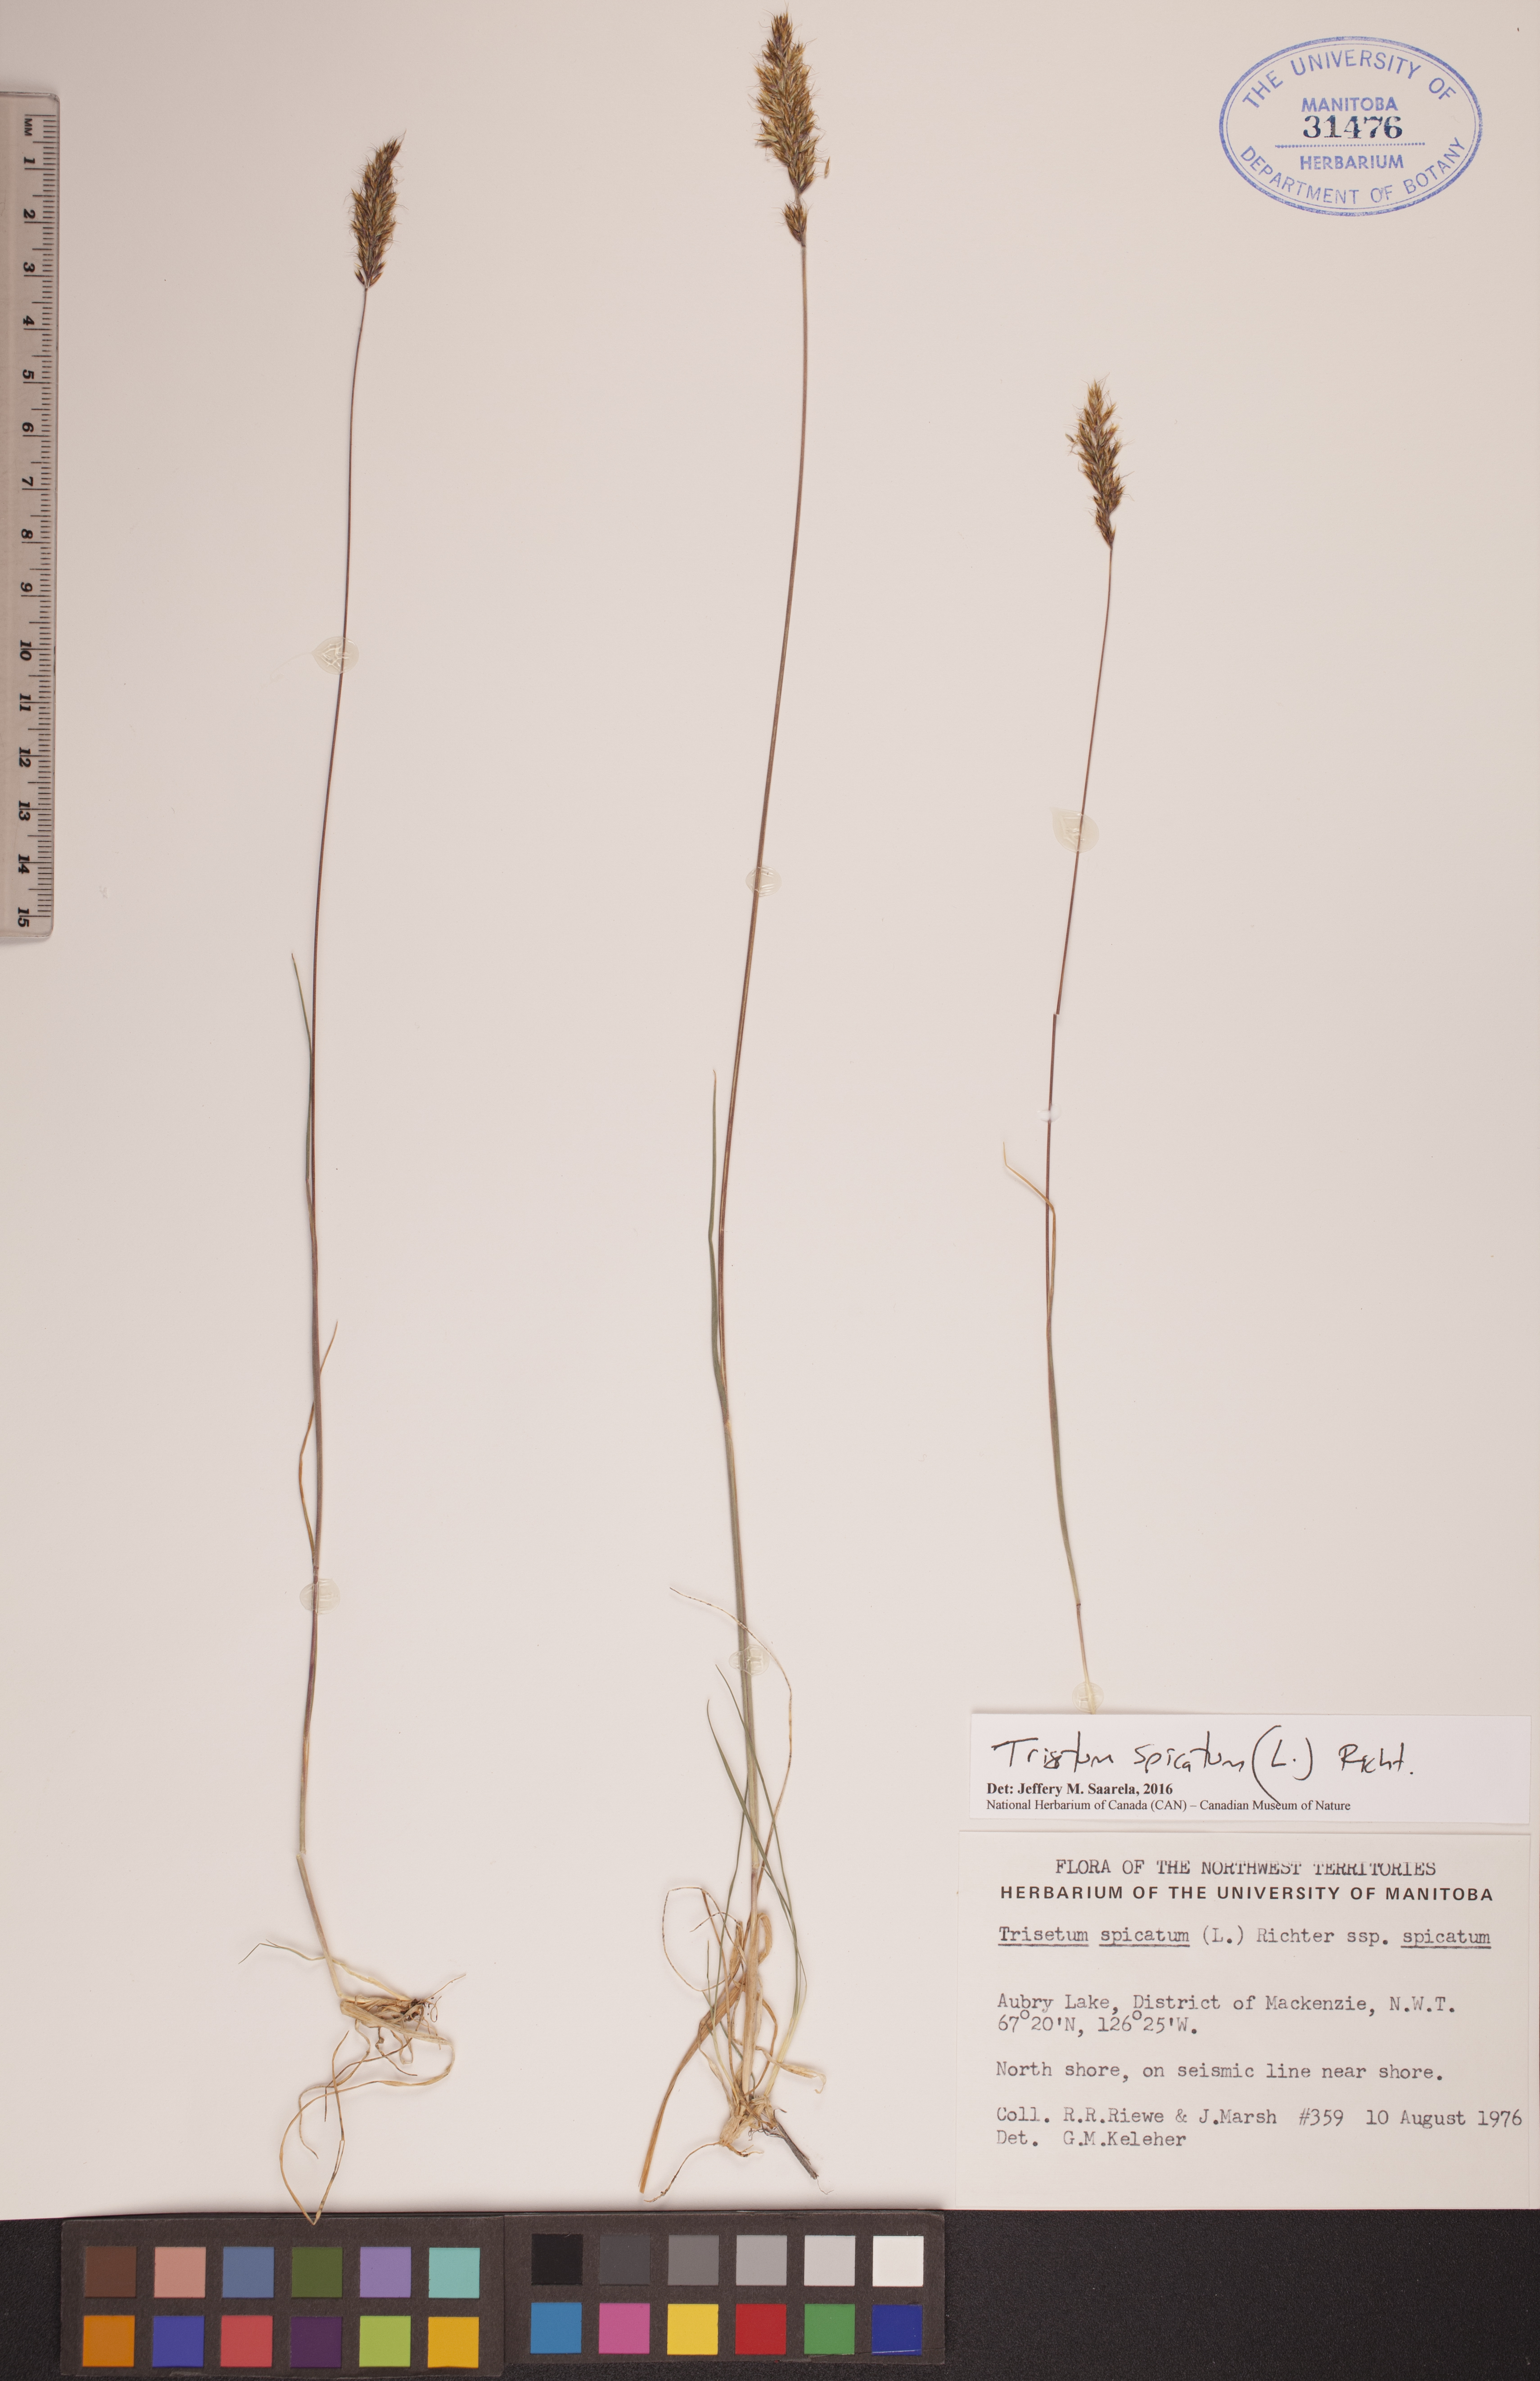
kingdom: Plantae
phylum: Tracheophyta
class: Liliopsida
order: Poales
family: Poaceae
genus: Koeleria
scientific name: Koeleria spicata
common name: Mountain trisetum
